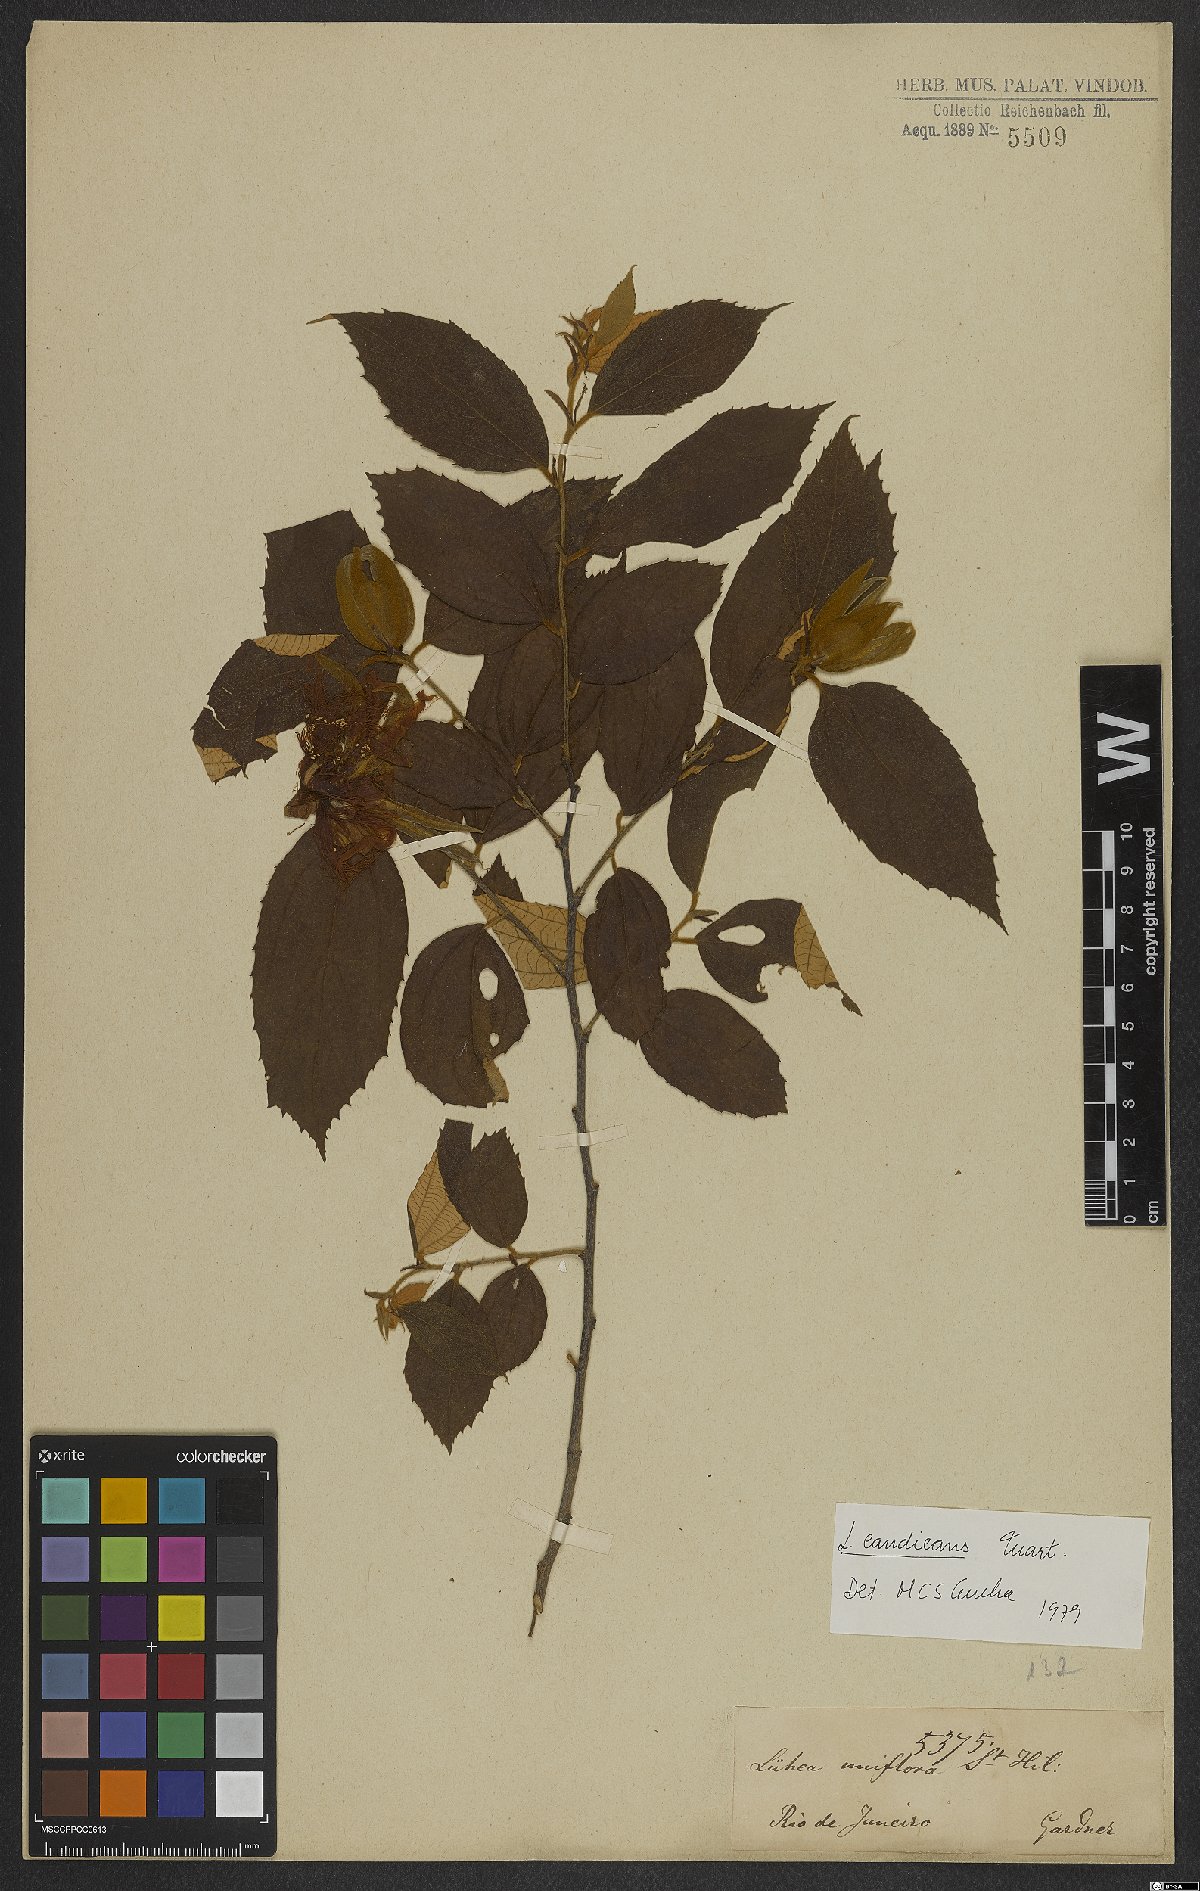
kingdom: Plantae
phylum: Tracheophyta
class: Magnoliopsida
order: Malvales
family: Malvaceae
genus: Luehea
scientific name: Luehea candicans
